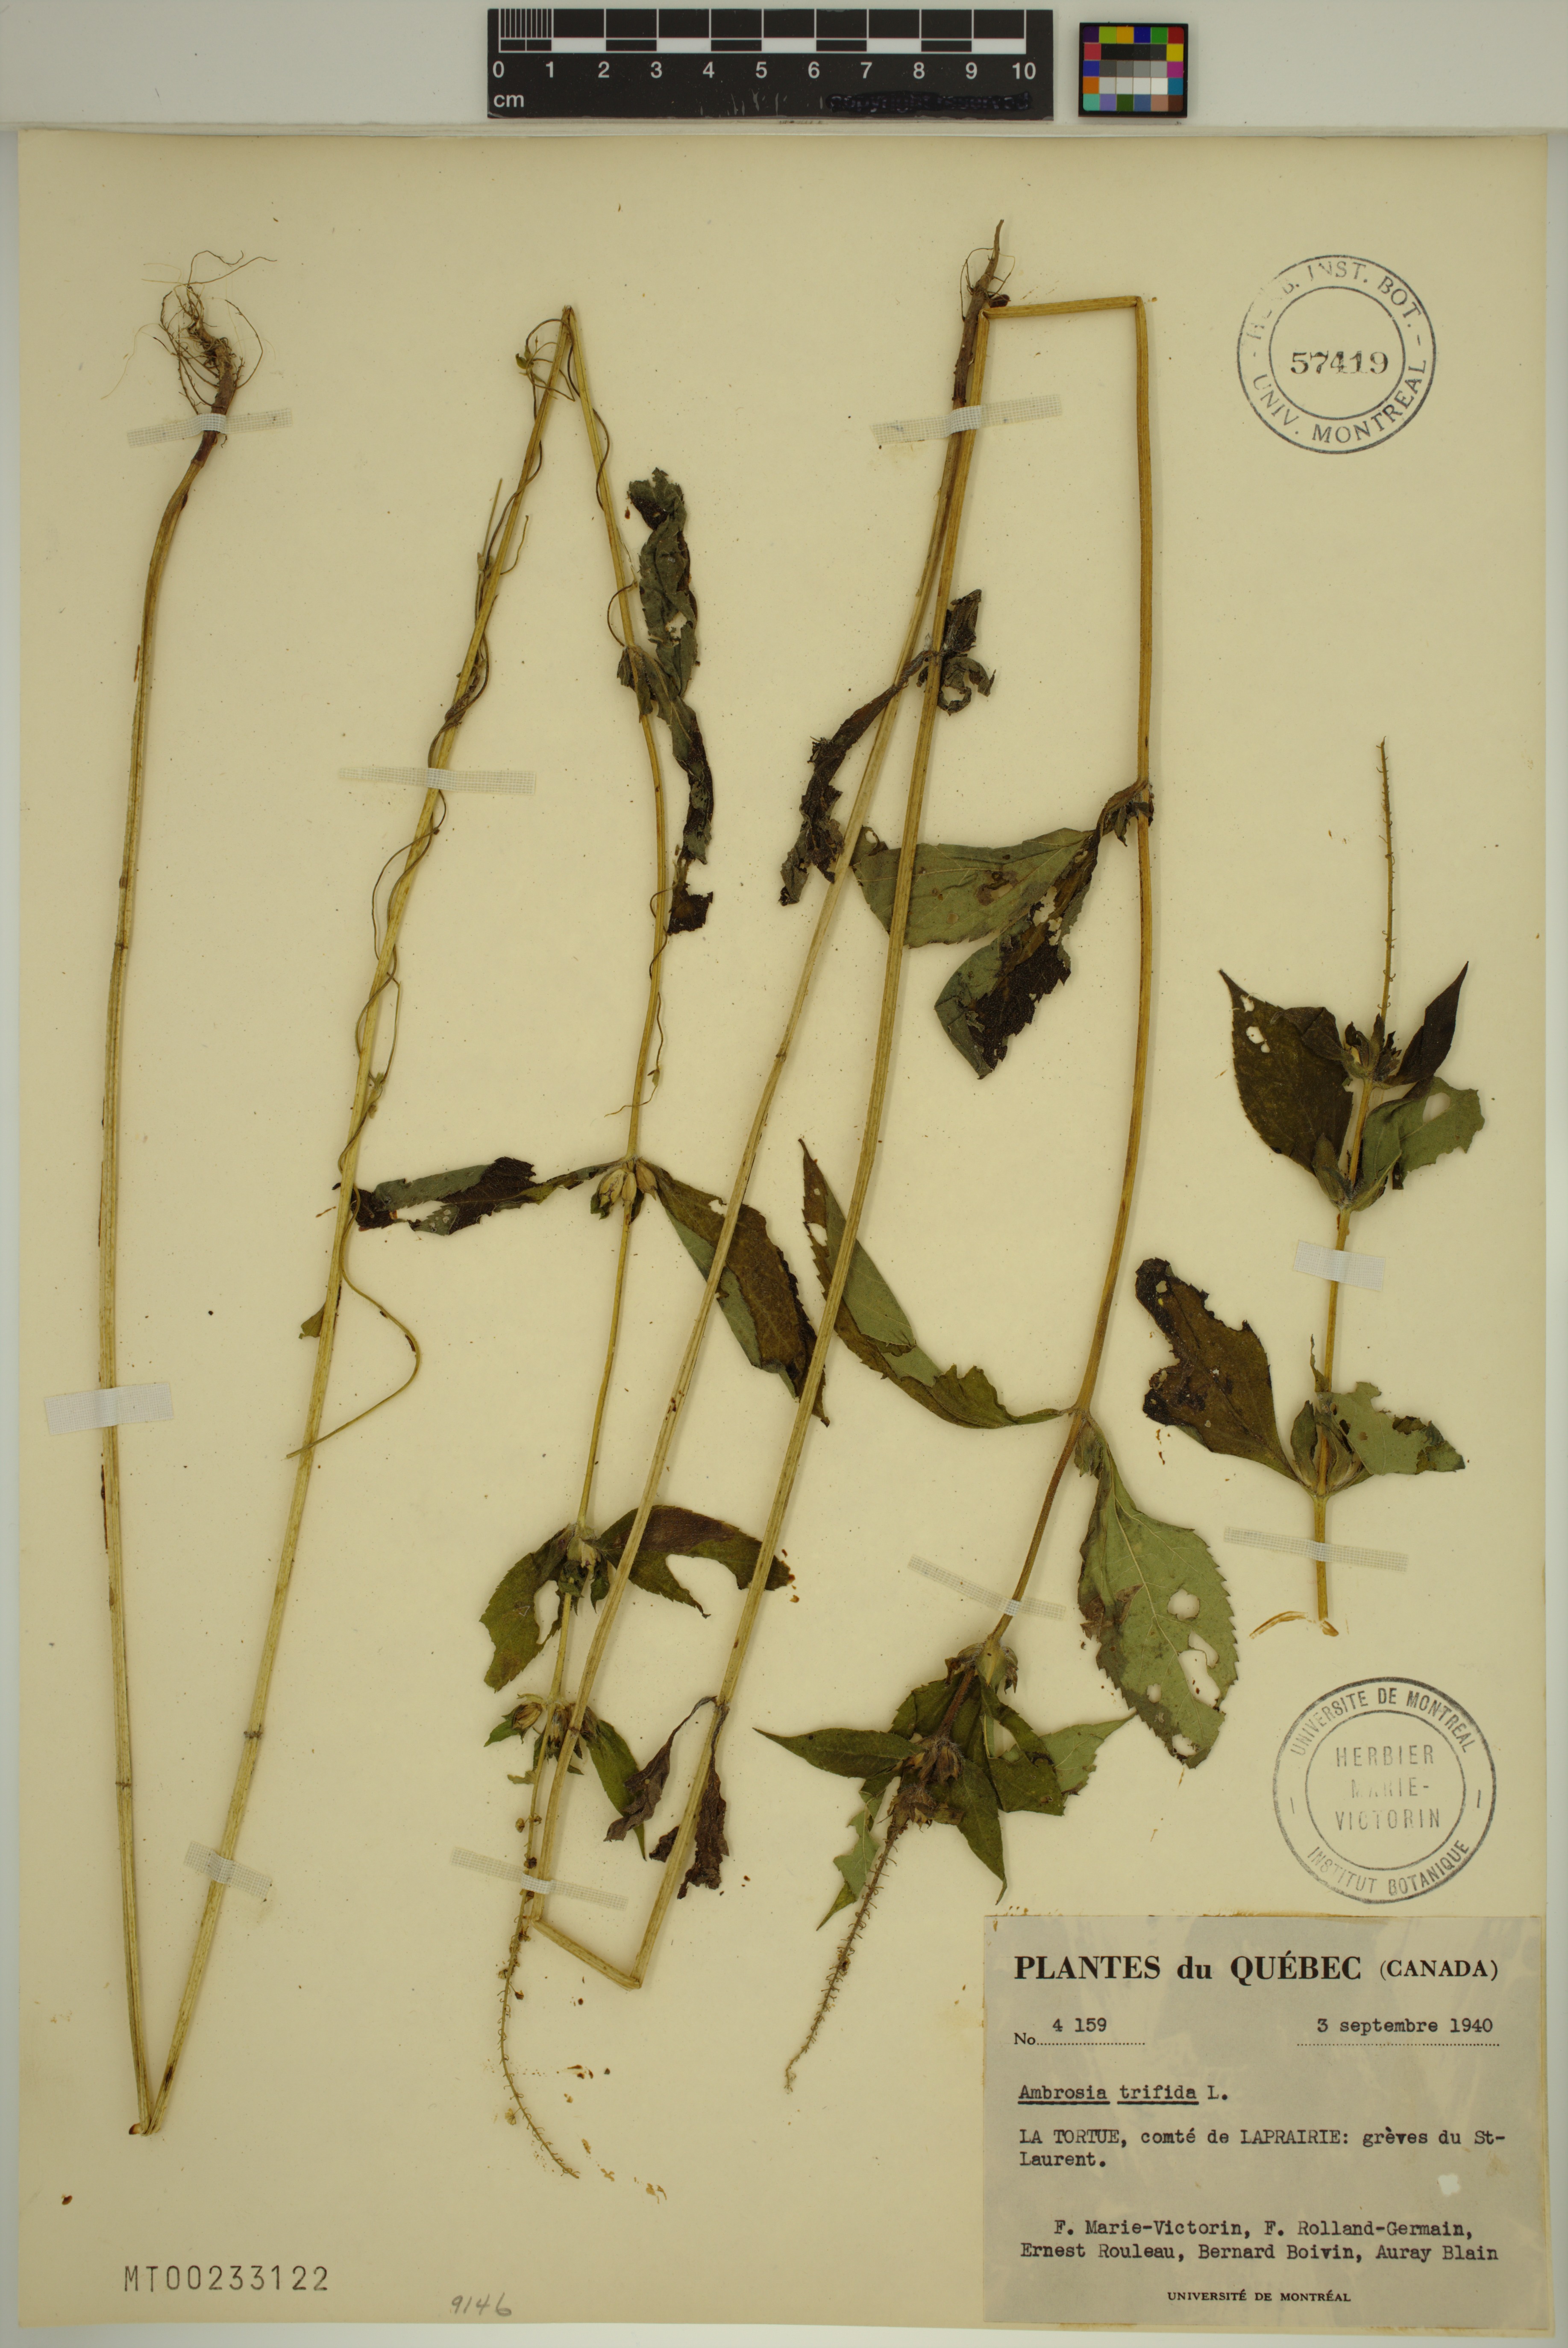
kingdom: Plantae
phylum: Tracheophyta
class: Magnoliopsida
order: Asterales
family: Asteraceae
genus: Ambrosia
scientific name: Ambrosia trifida
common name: Giant ragweed
